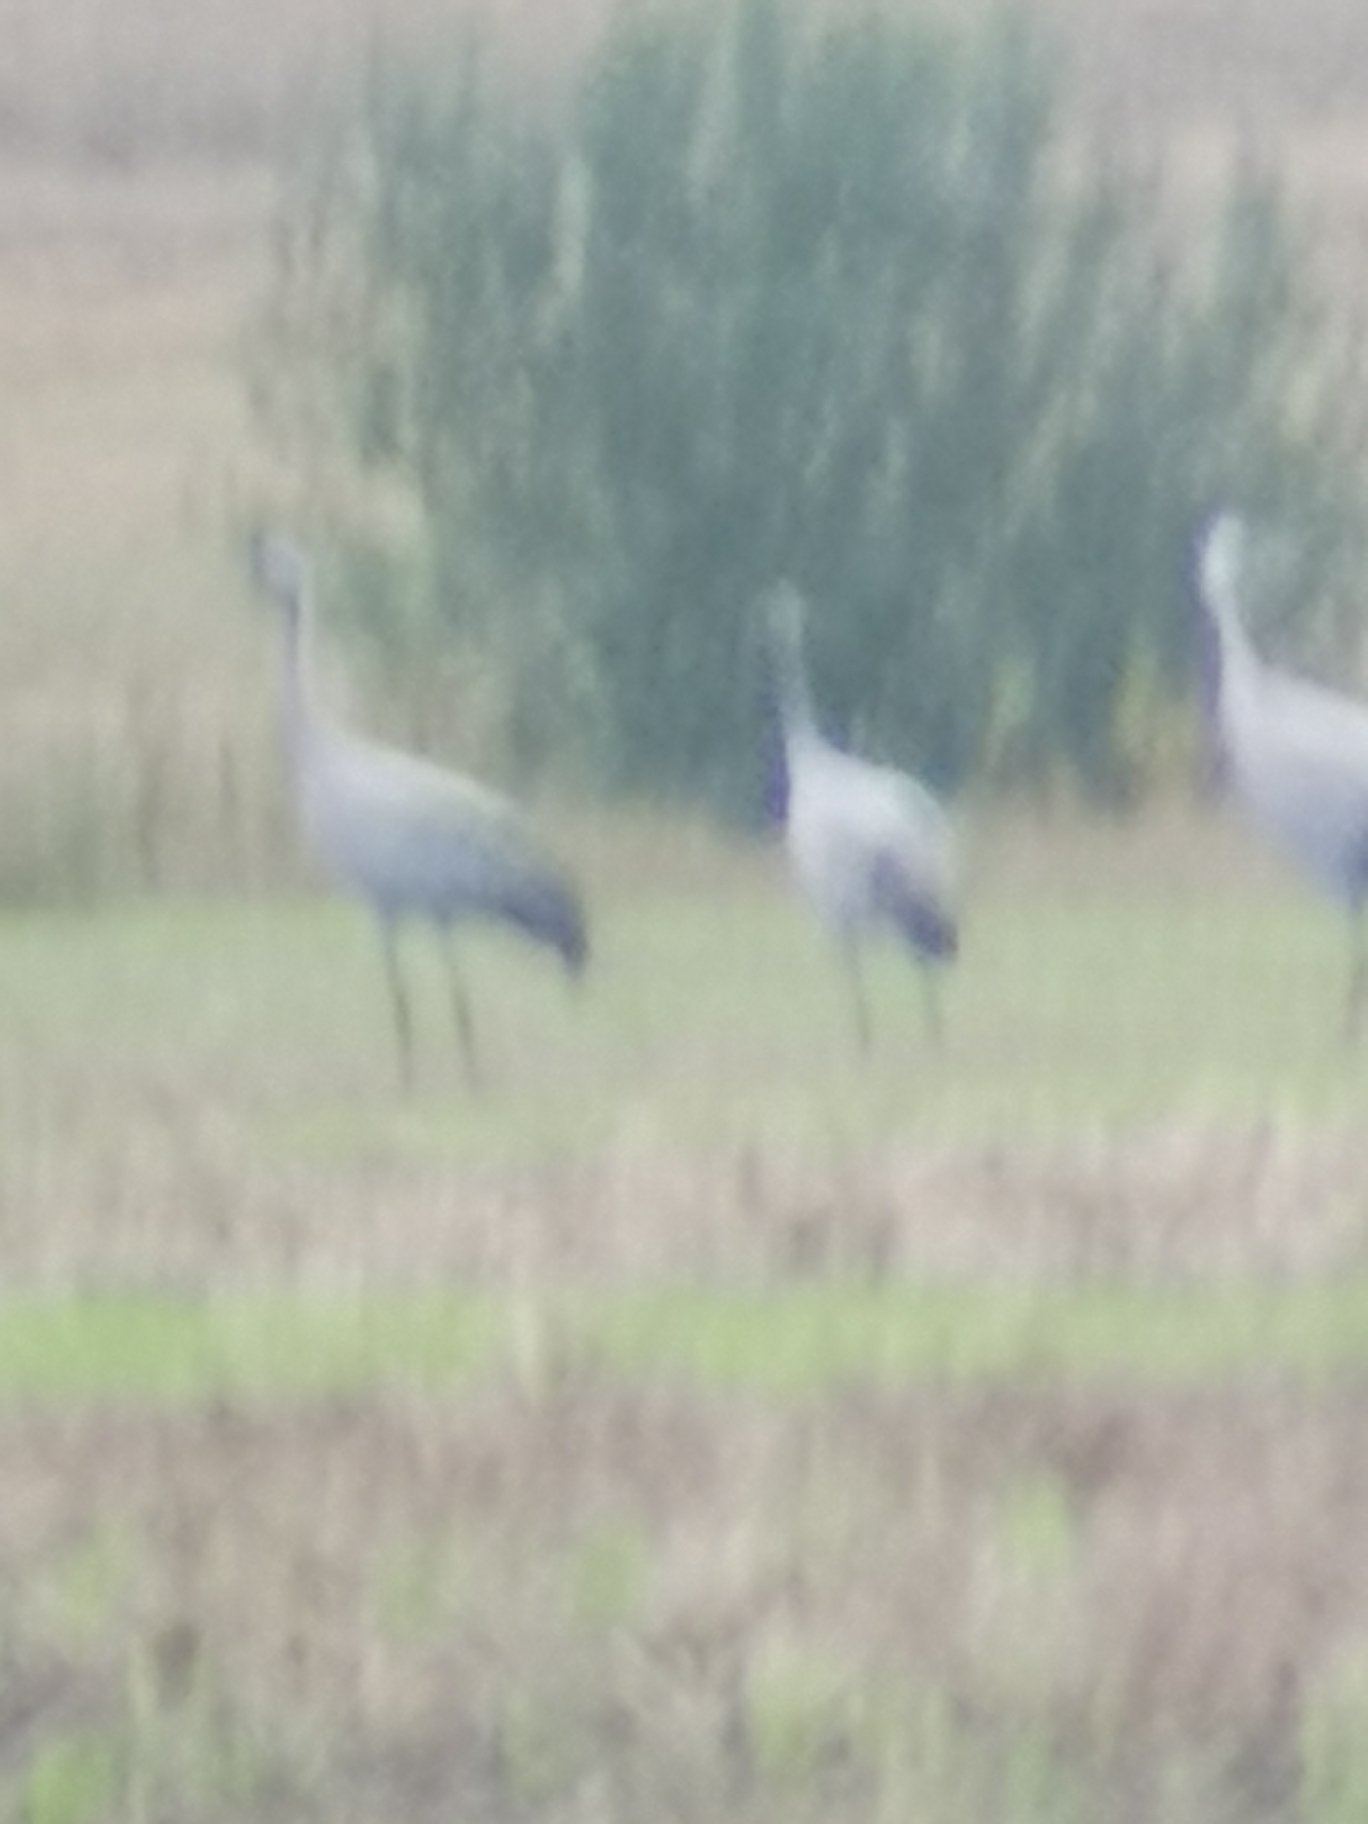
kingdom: Animalia
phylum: Chordata
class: Aves
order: Gruiformes
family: Gruidae
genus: Grus
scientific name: Grus grus
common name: Trane
